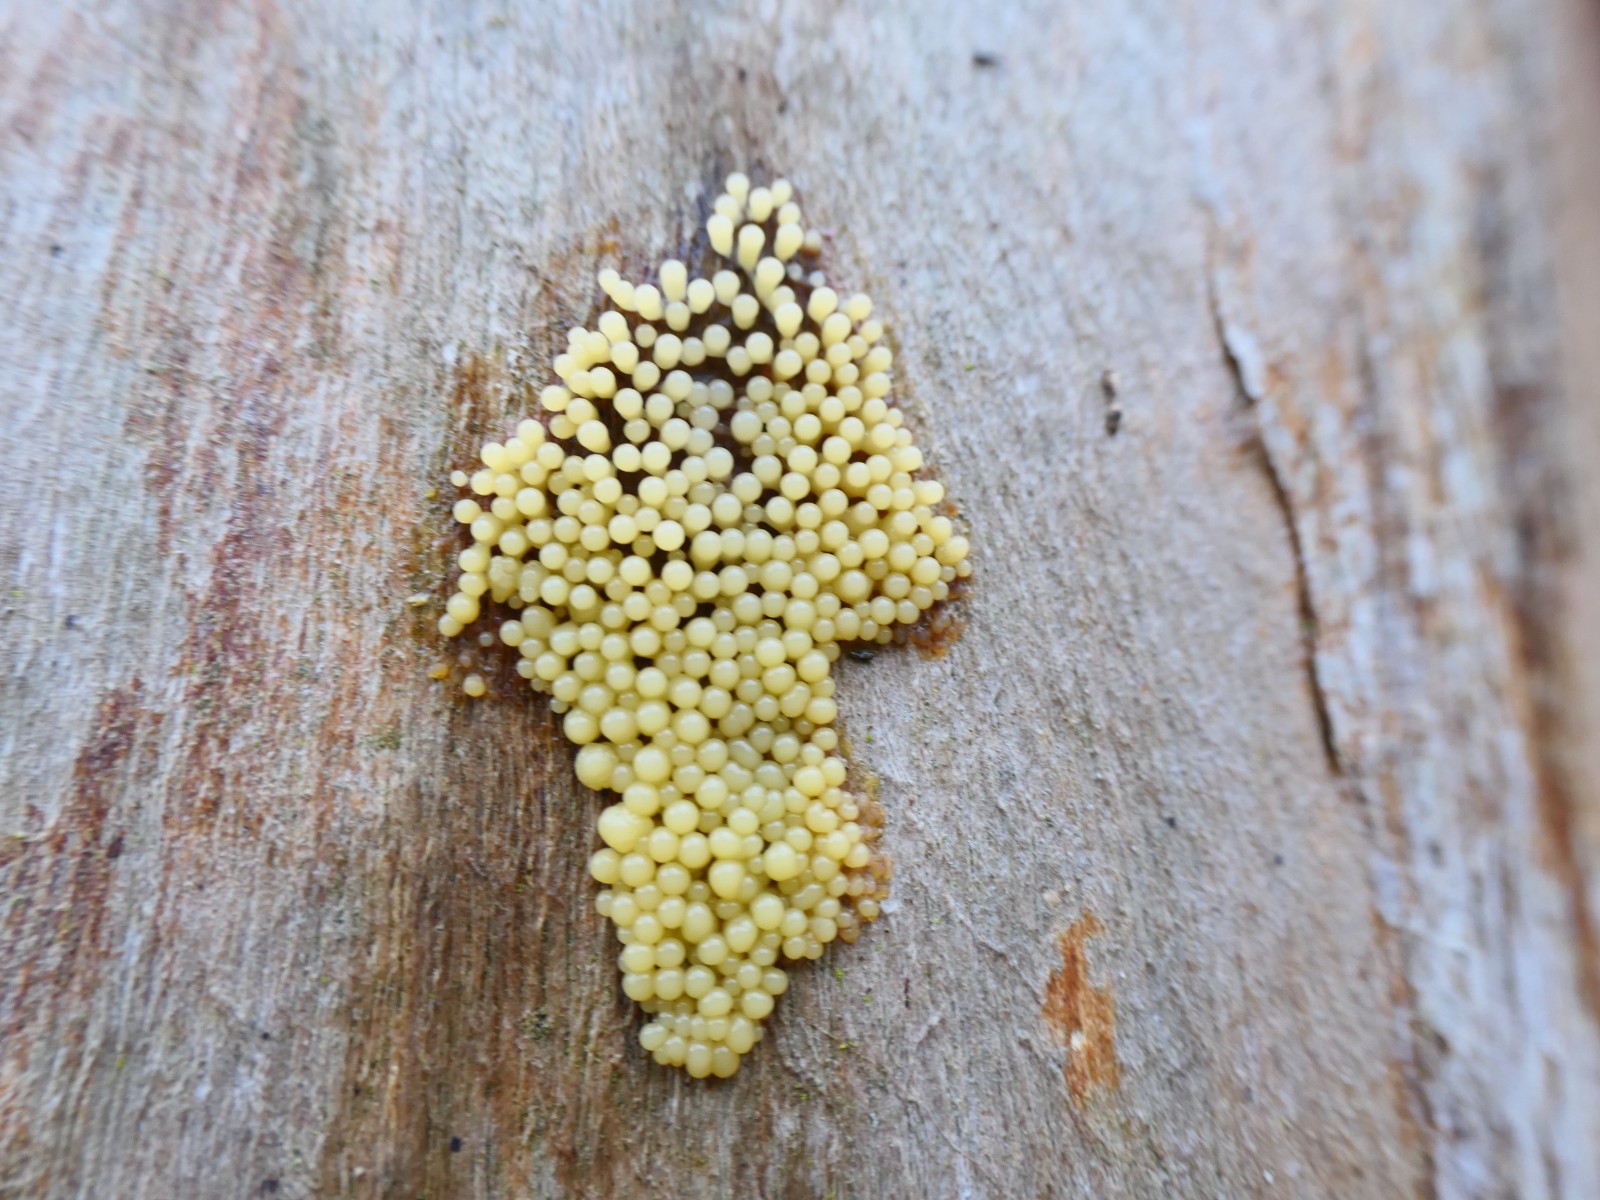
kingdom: Protozoa
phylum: Mycetozoa
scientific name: Mycetozoa
